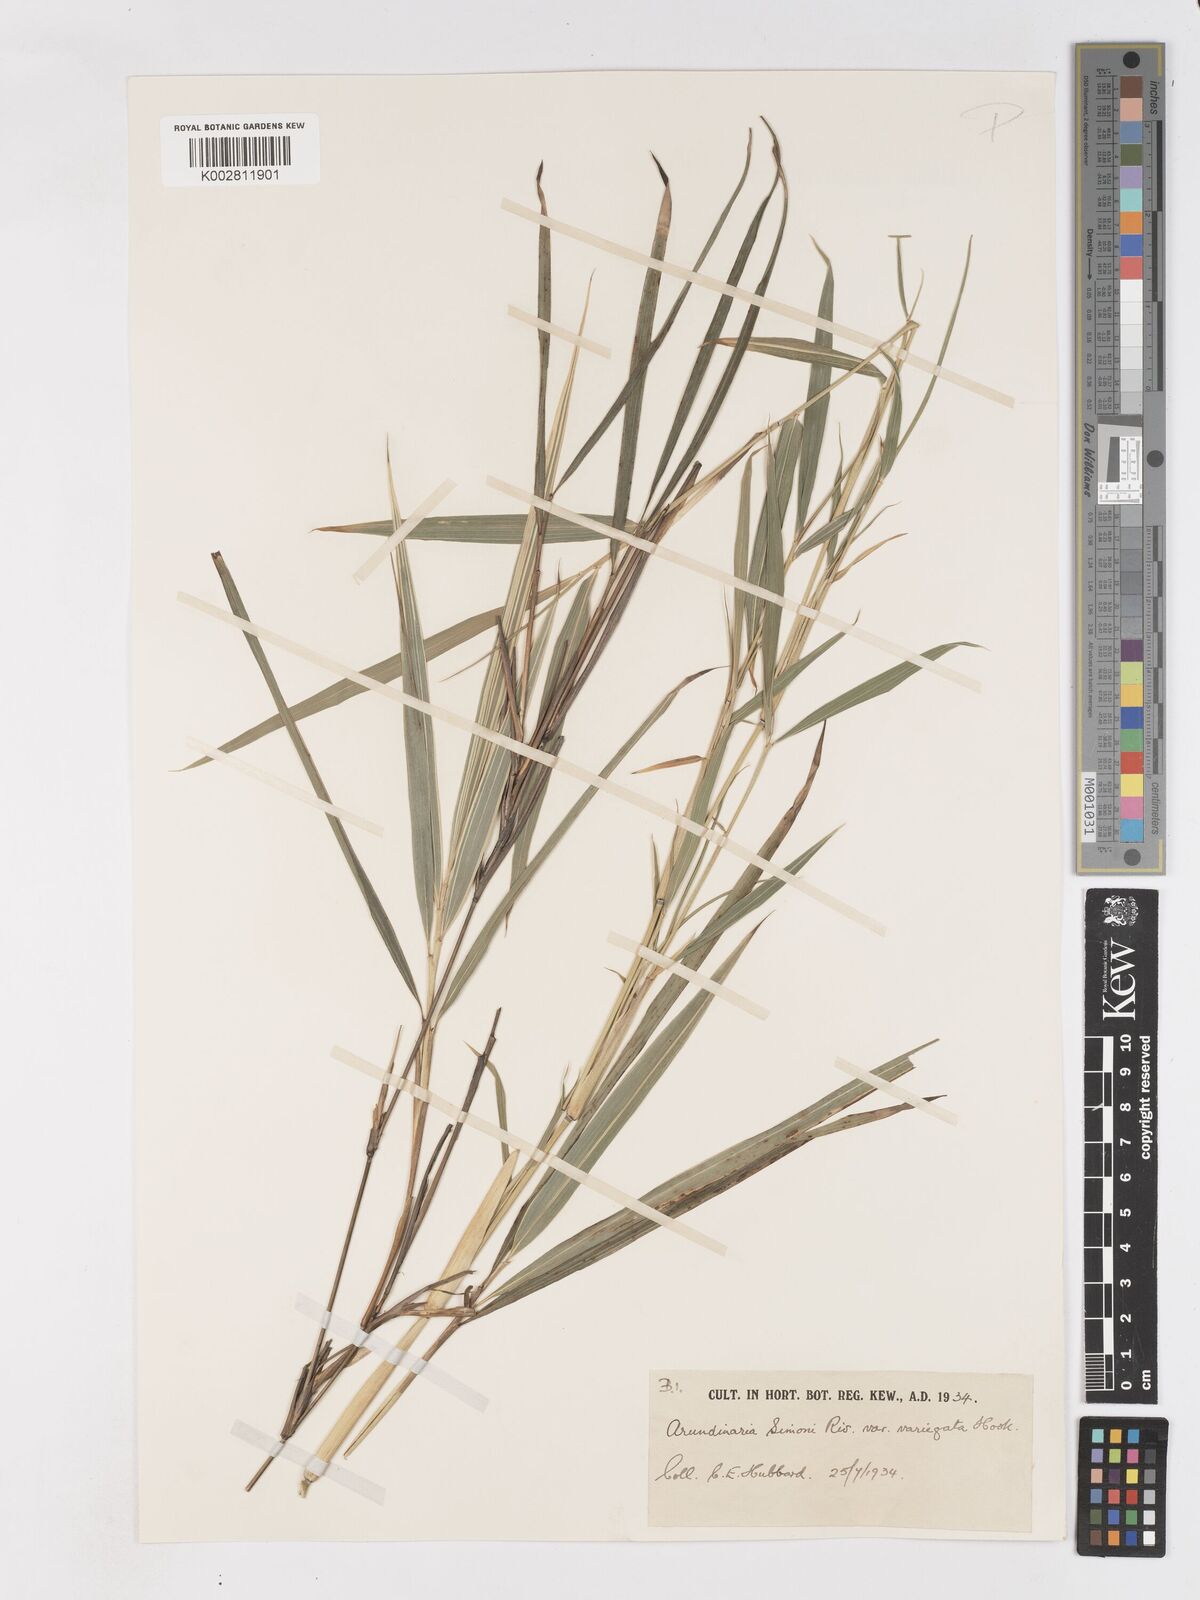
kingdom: Plantae
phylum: Tracheophyta
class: Liliopsida
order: Poales
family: Poaceae
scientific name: Poaceae
